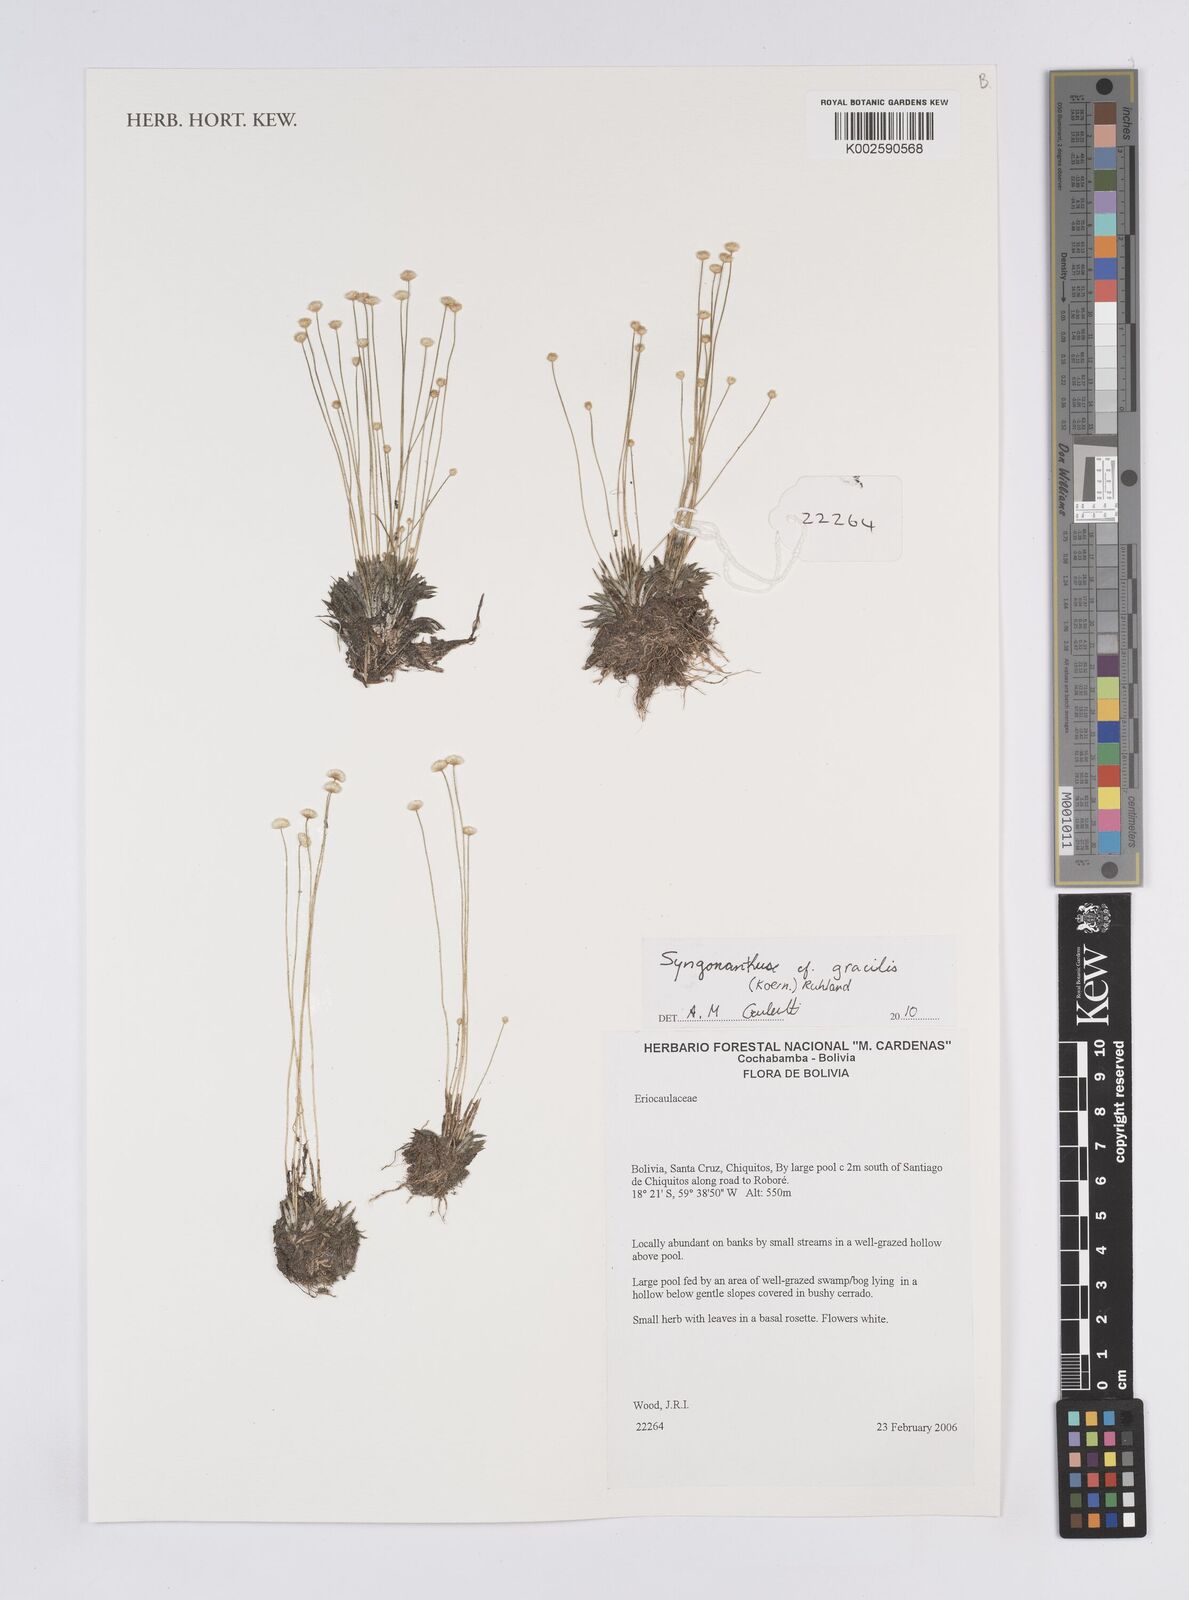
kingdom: Plantae
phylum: Tracheophyta
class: Liliopsida
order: Poales
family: Eriocaulaceae
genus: Syngonanthus
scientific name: Syngonanthus
